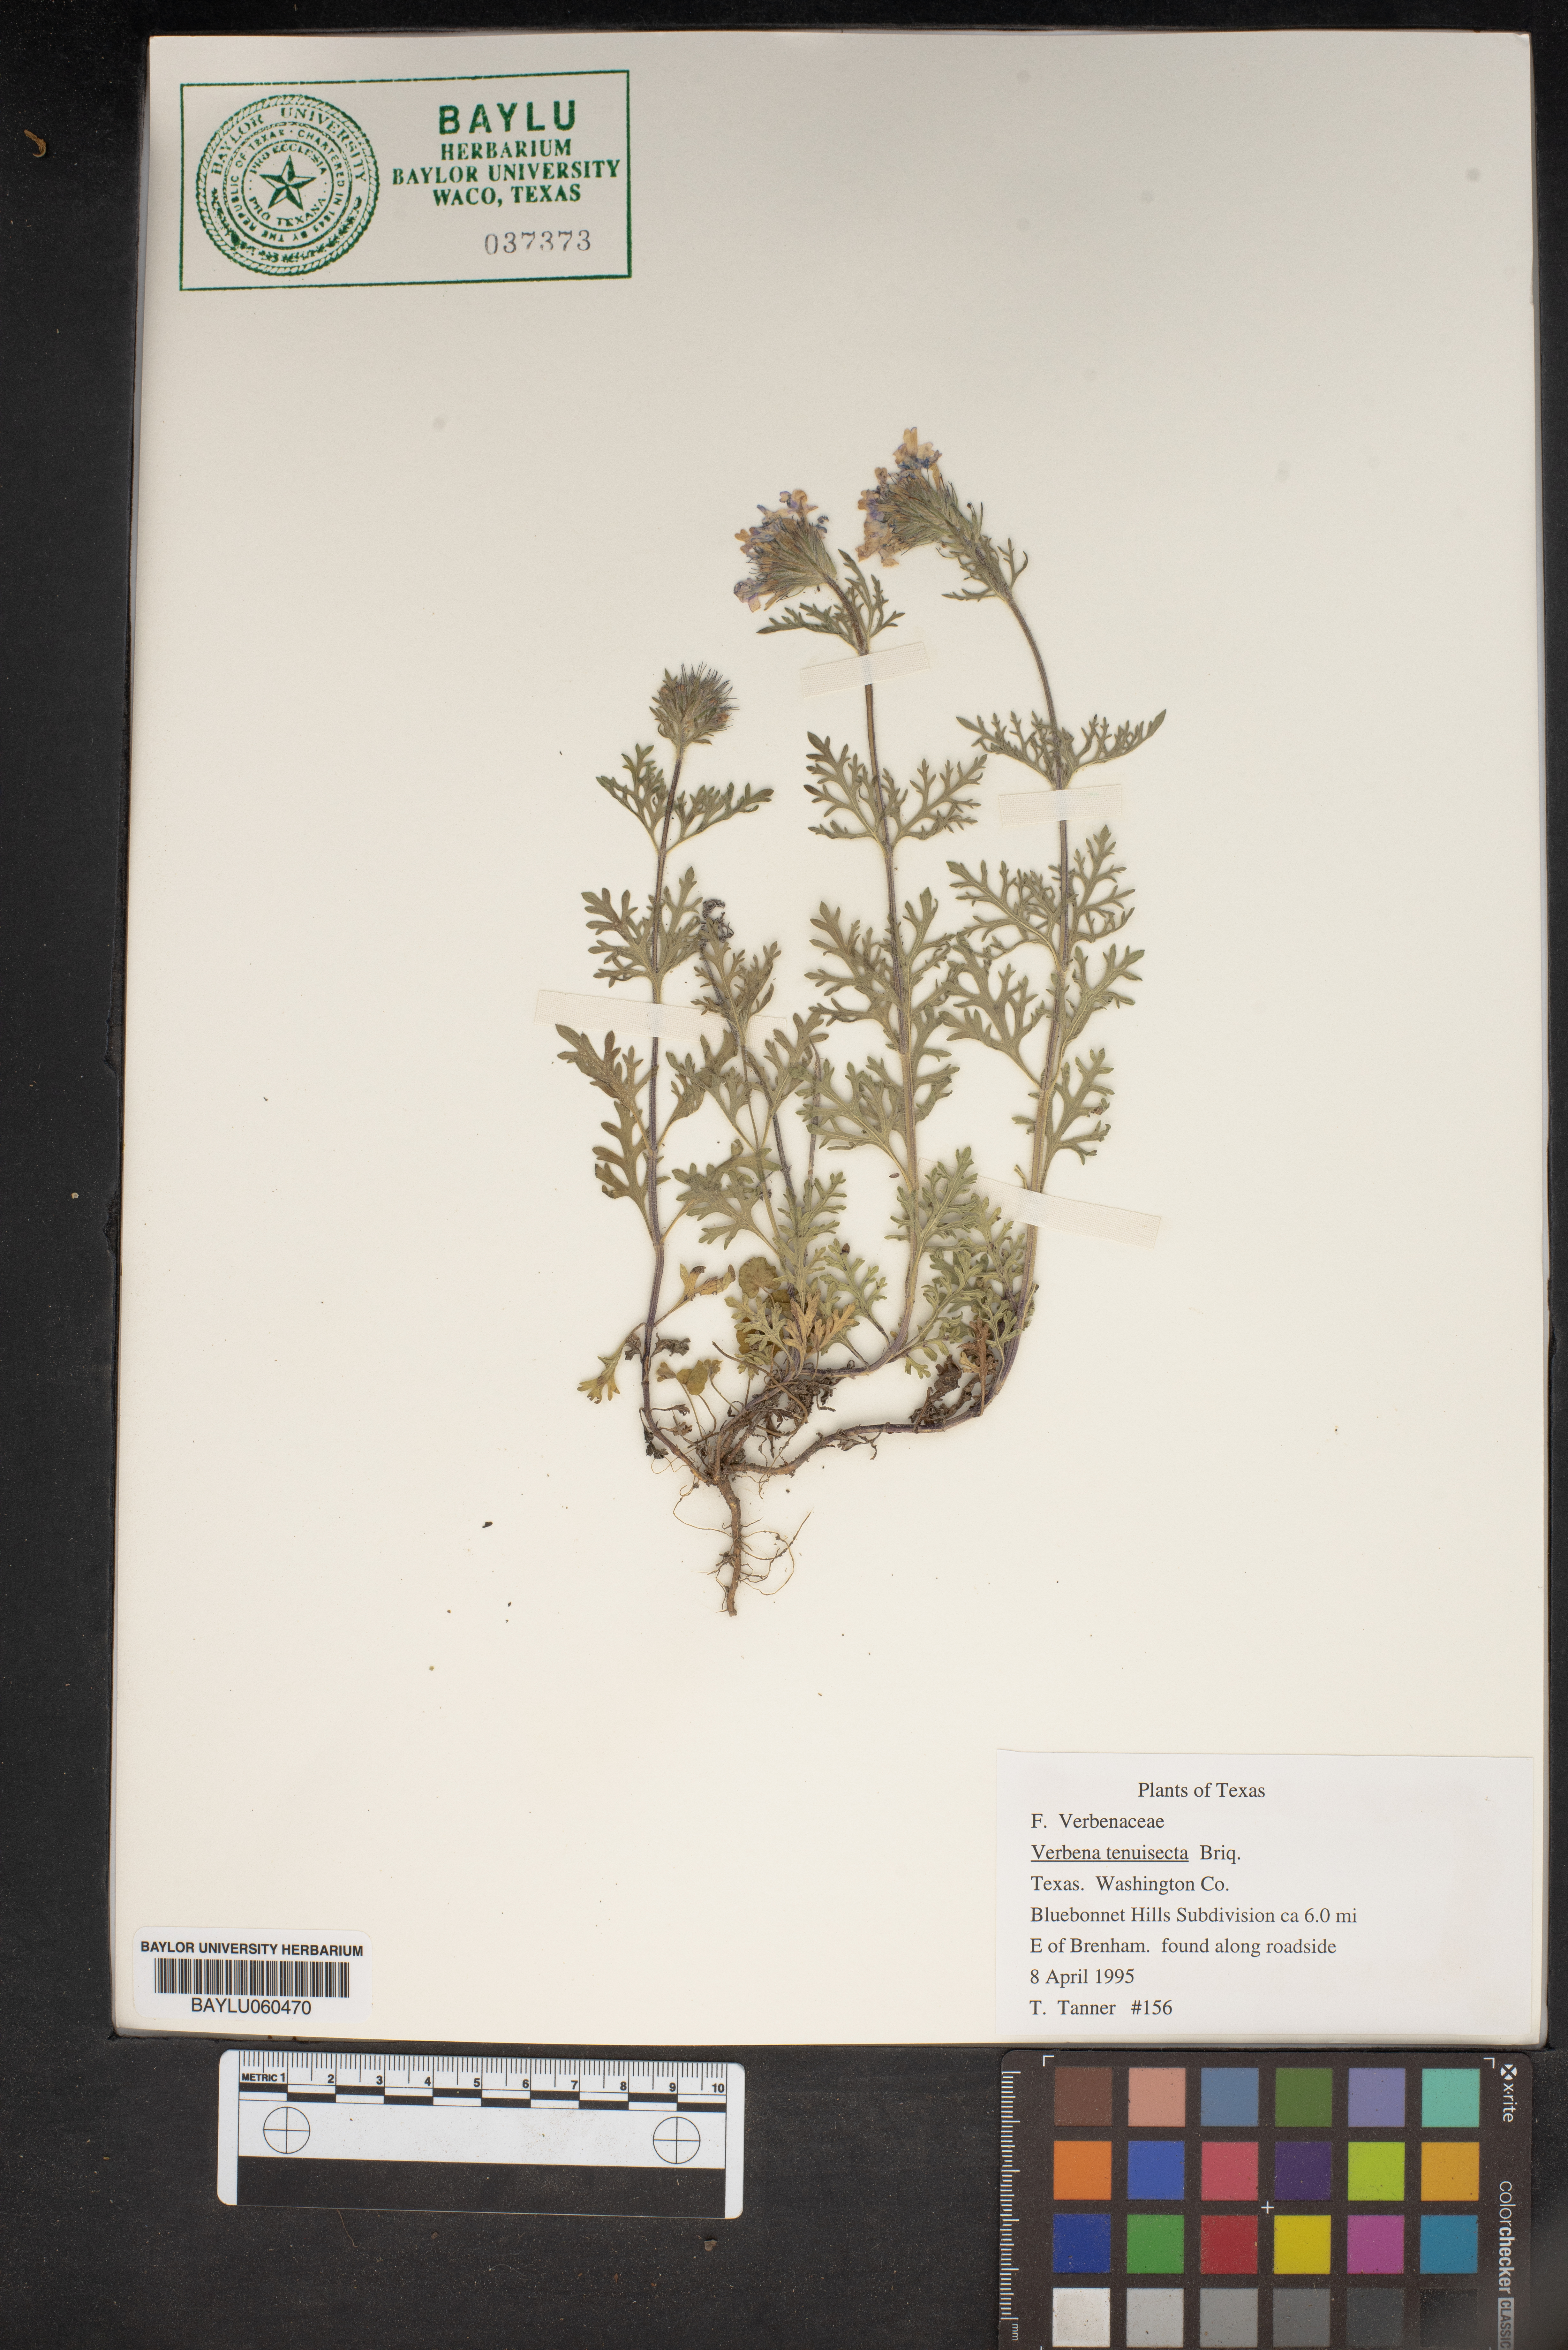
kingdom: Plantae
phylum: Tracheophyta
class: Magnoliopsida
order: Lamiales
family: Verbenaceae
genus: Verbena
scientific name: Verbena aristigera
